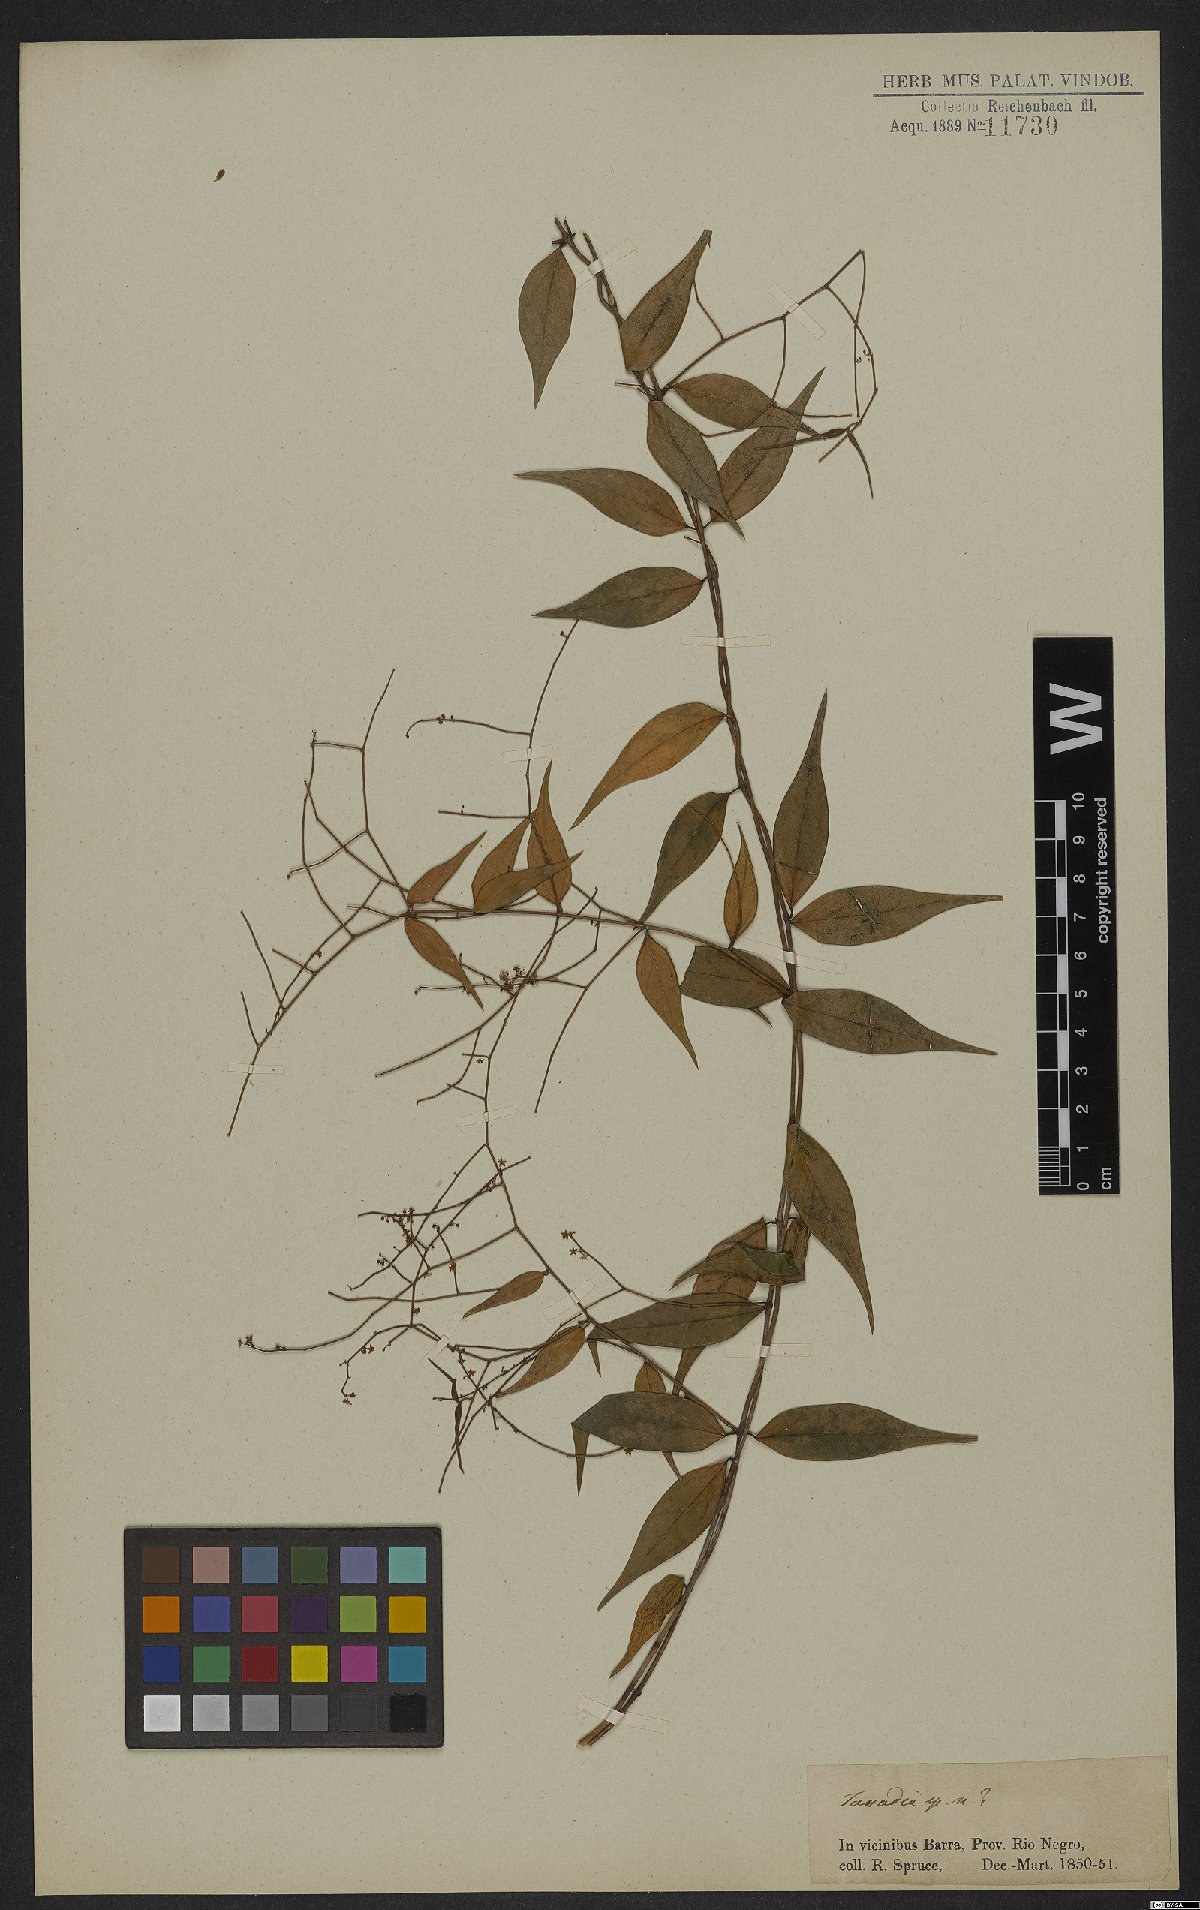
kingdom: Plantae
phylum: Tracheophyta
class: Magnoliopsida
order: Gentianales
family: Apocynaceae
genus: Tassadia
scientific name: Tassadia propinqua
